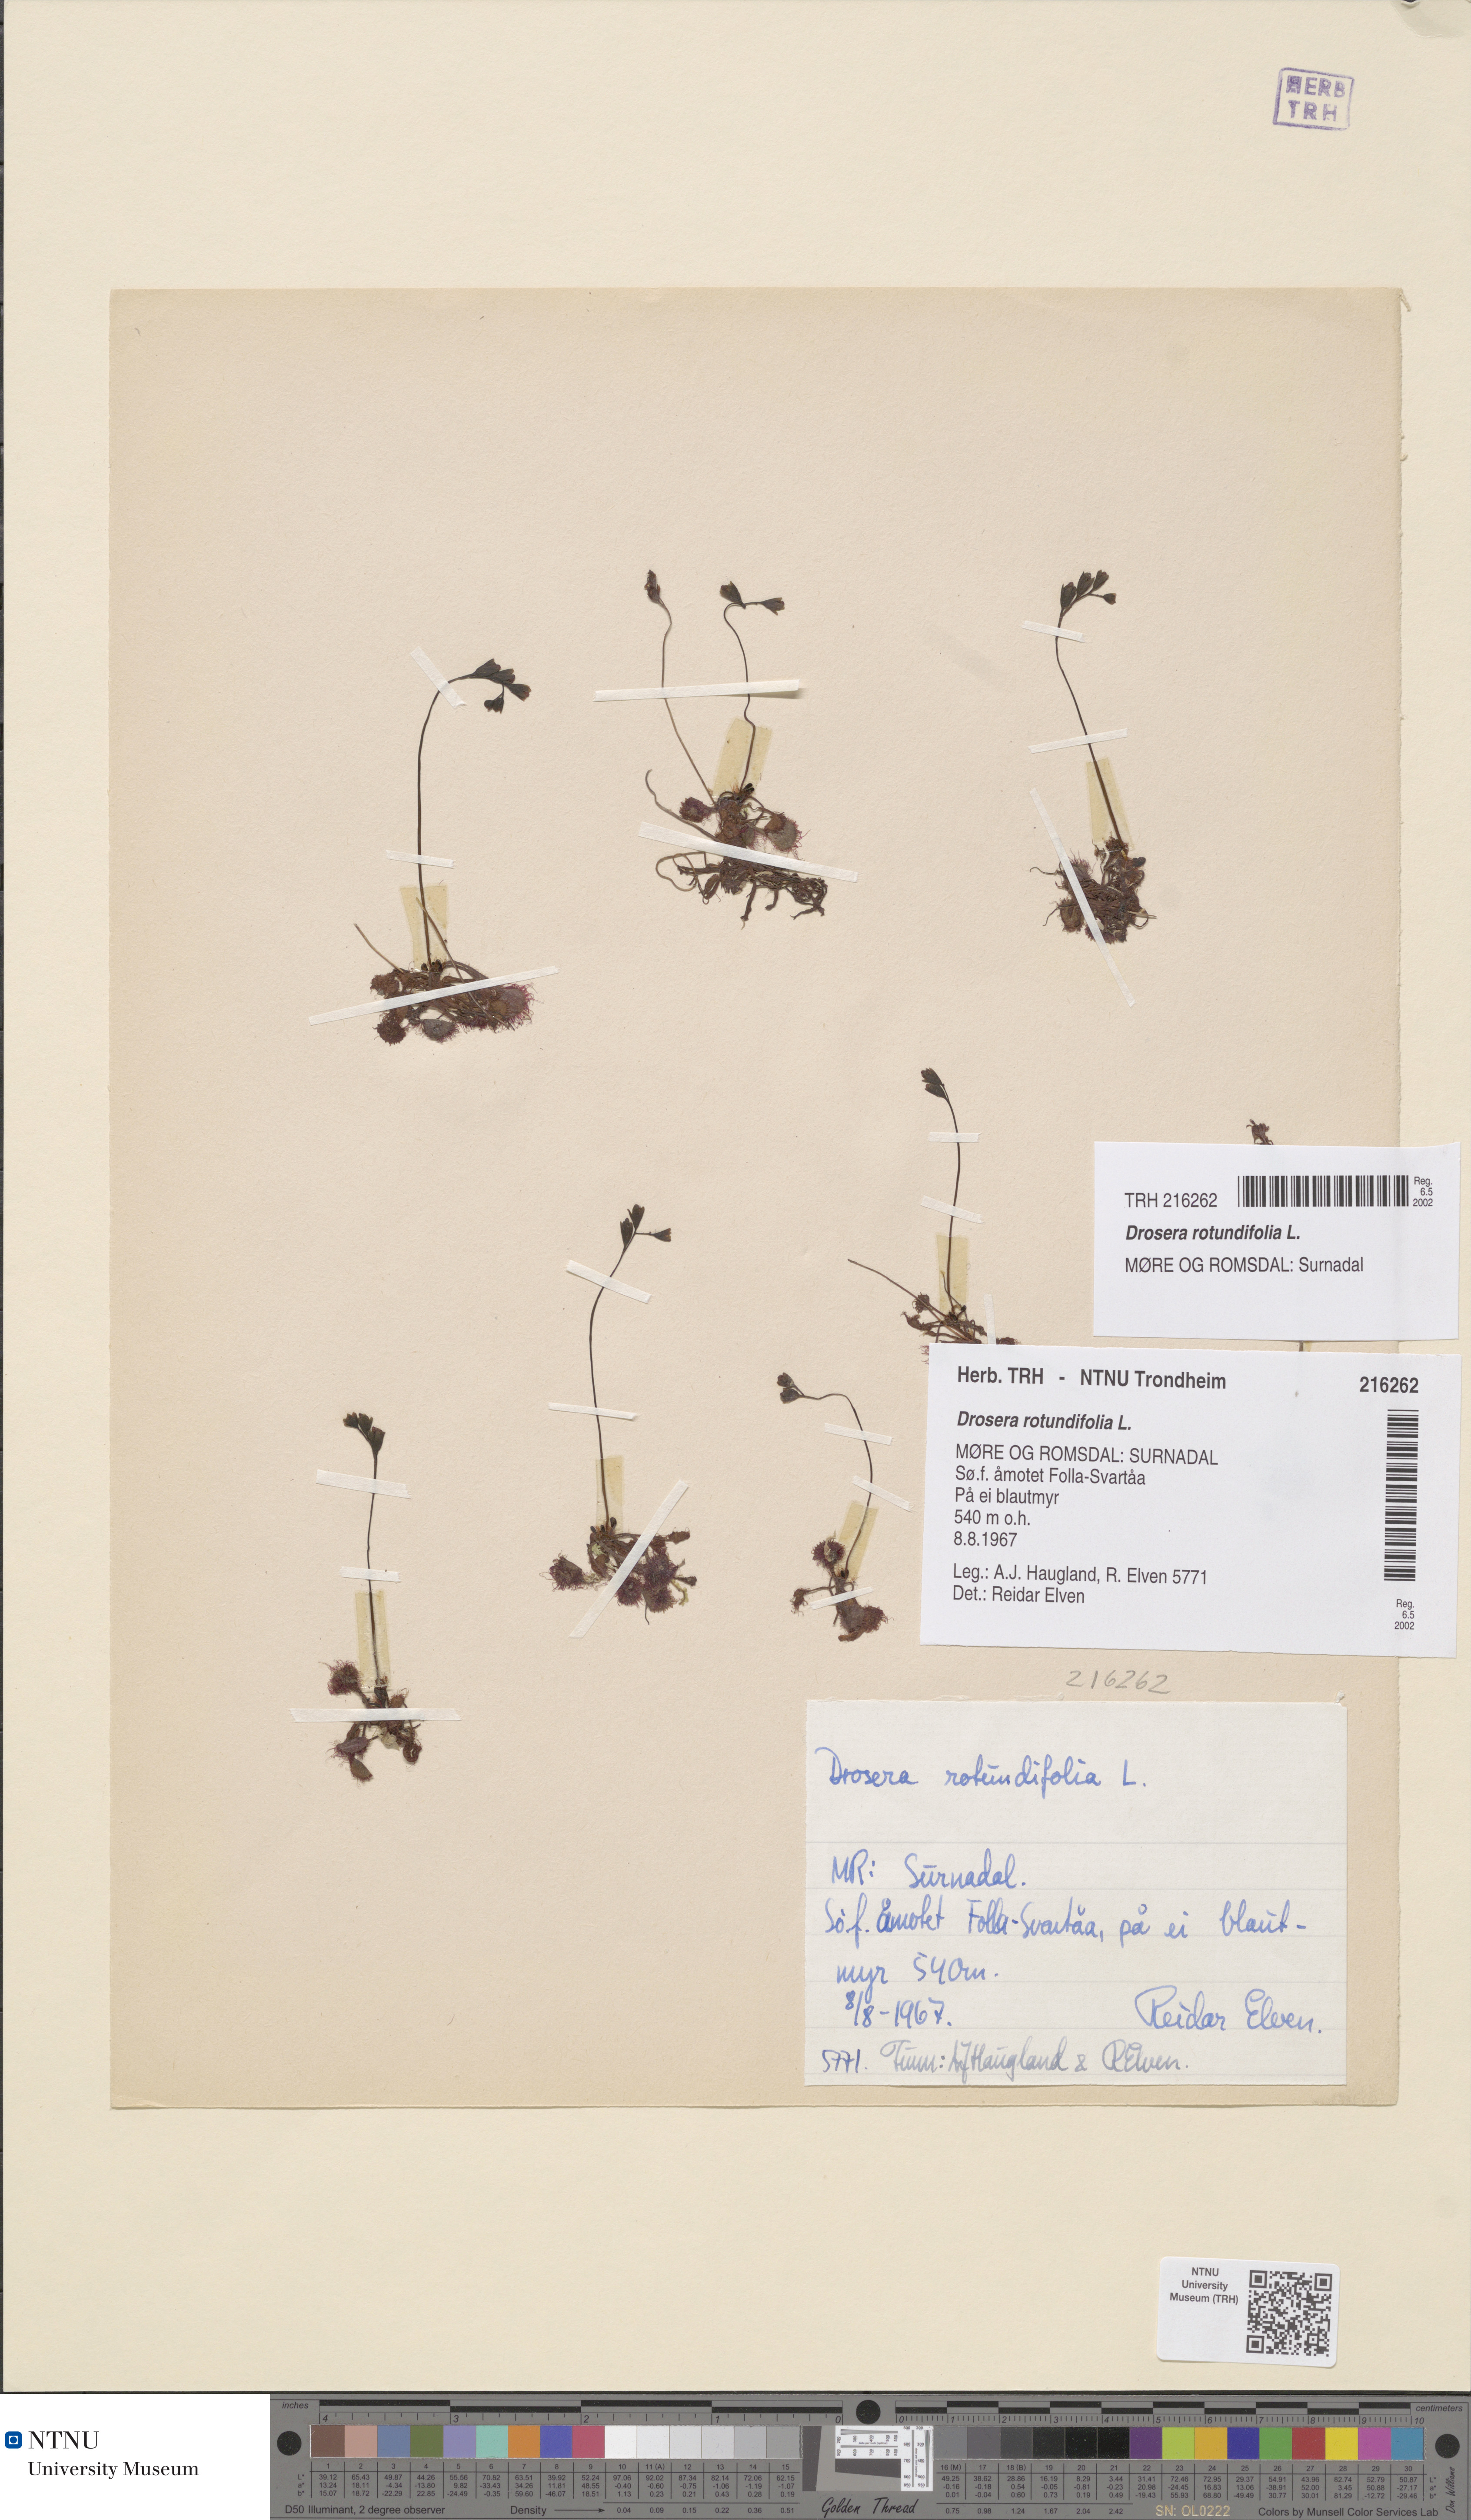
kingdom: Plantae
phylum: Tracheophyta
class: Magnoliopsida
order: Caryophyllales
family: Droseraceae
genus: Drosera
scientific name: Drosera rotundifolia
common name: Round-leaved sundew
